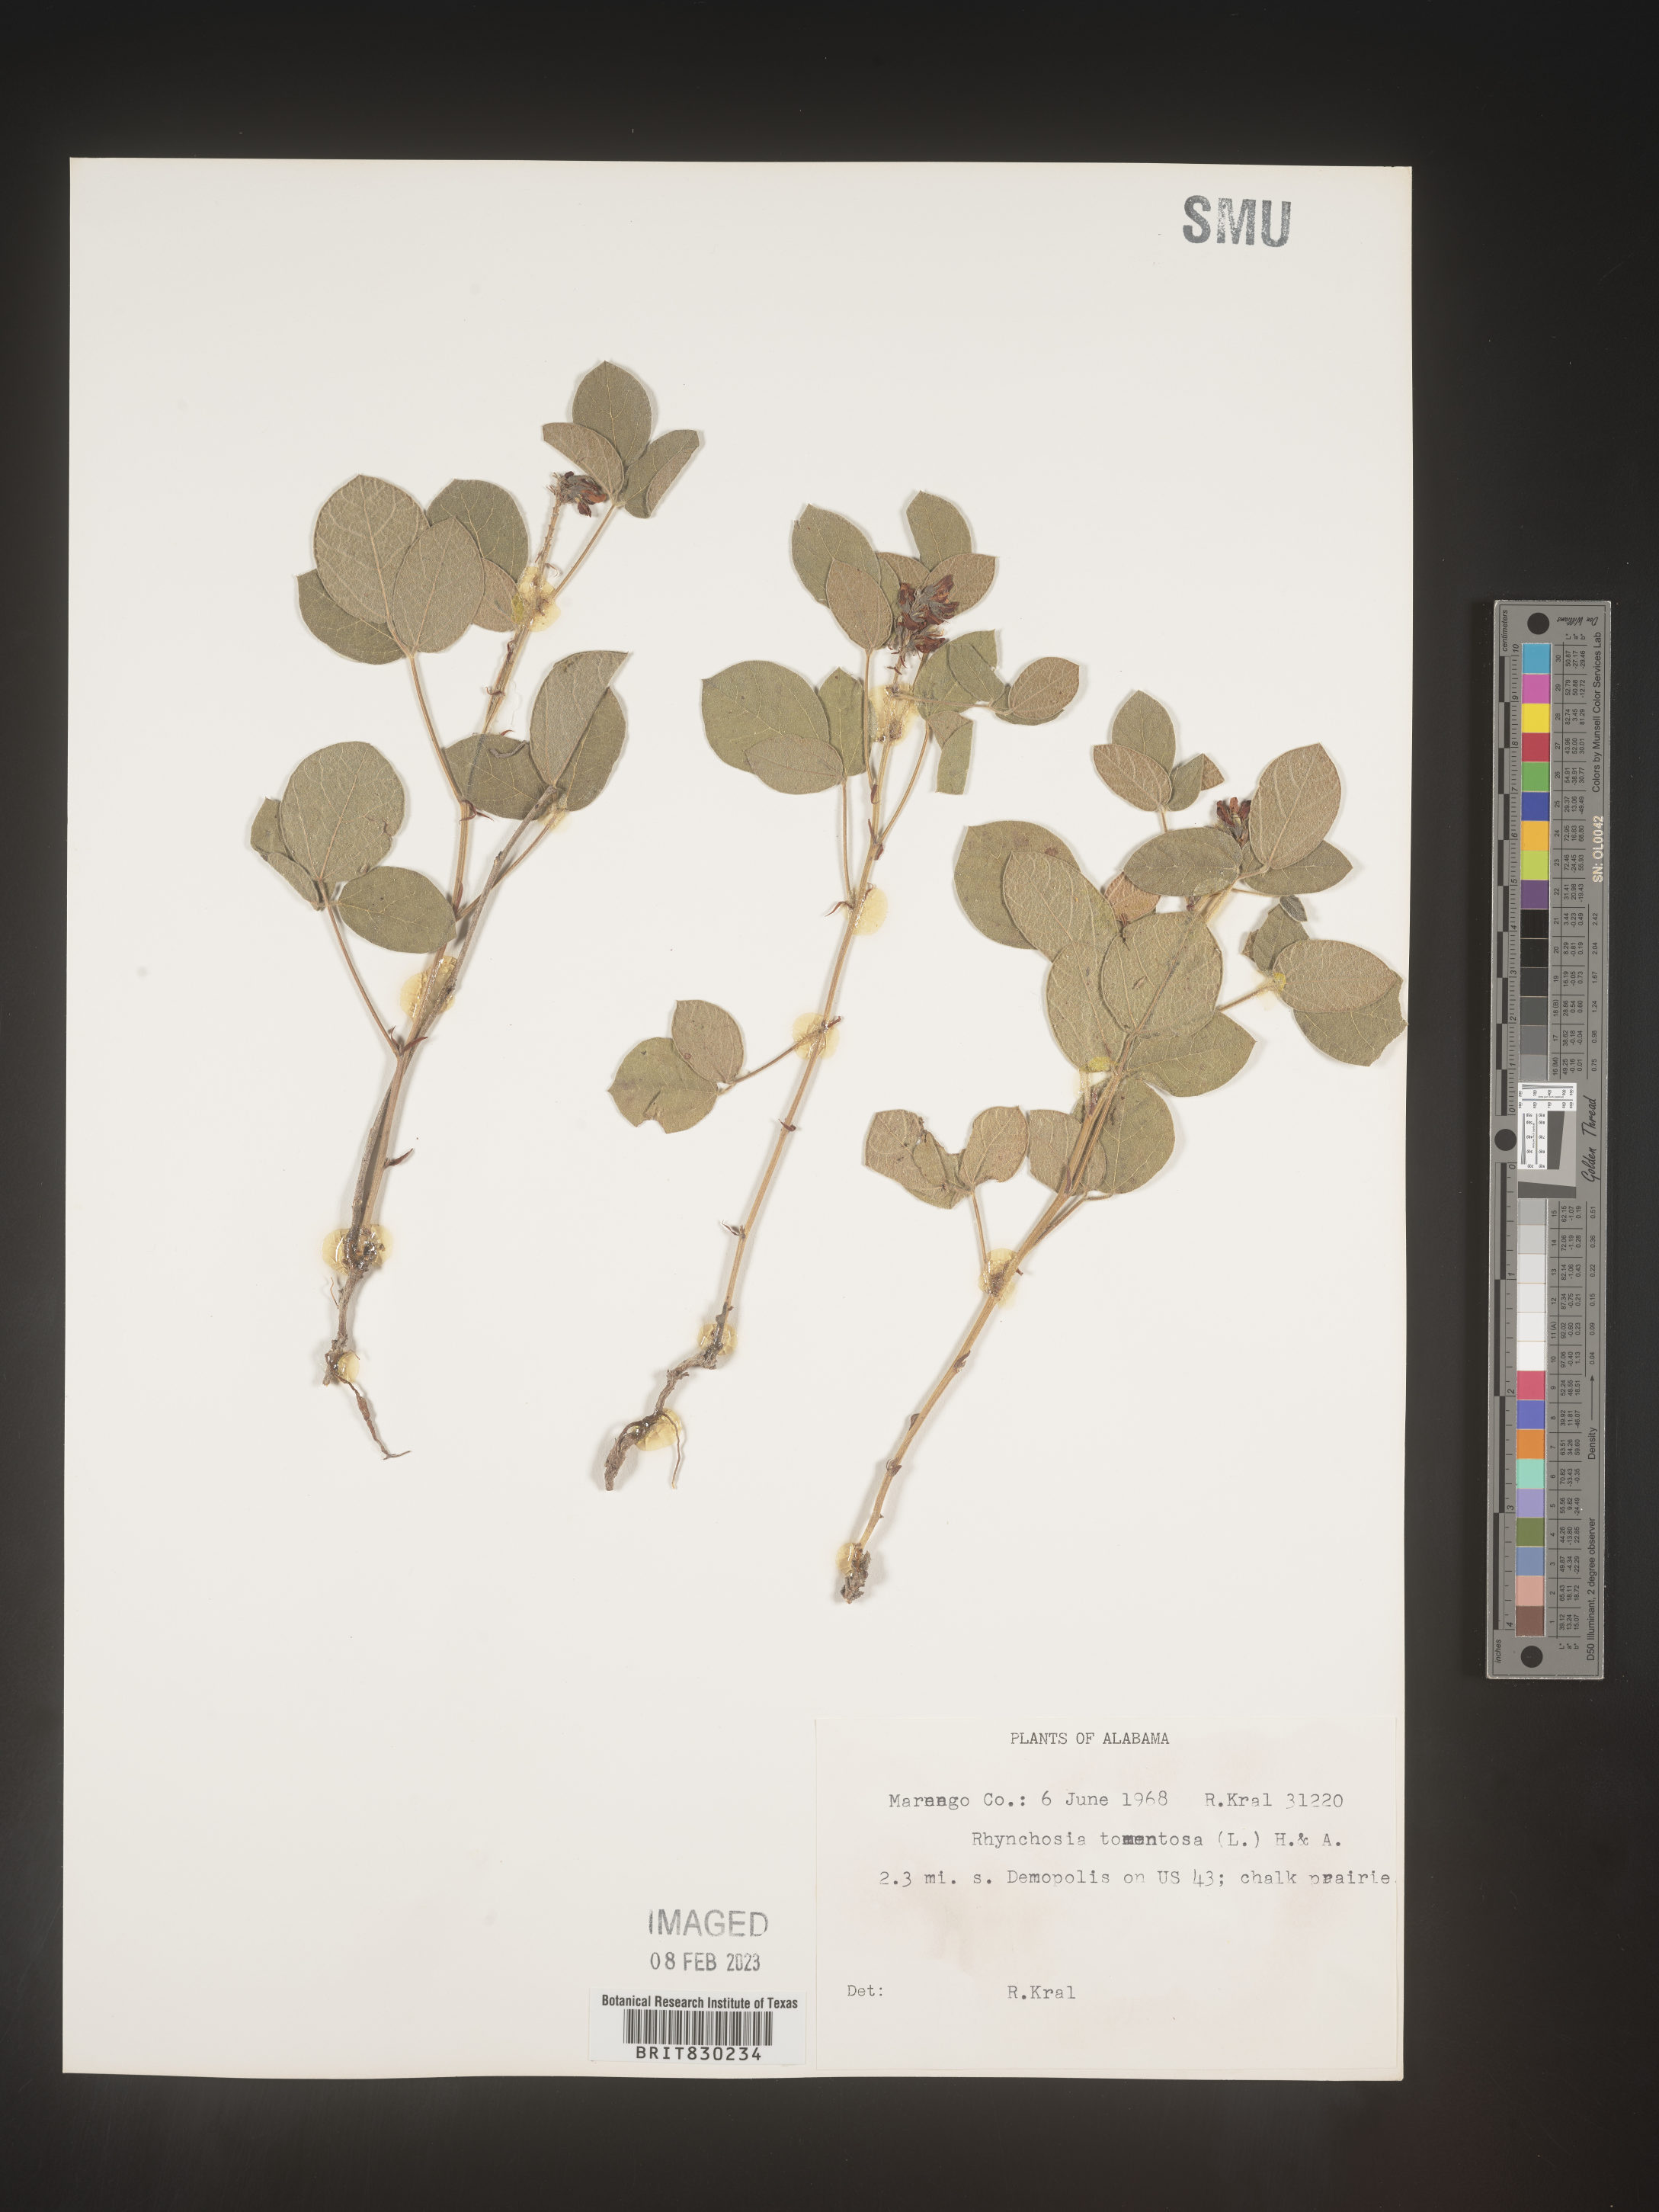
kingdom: Plantae
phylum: Tracheophyta
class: Magnoliopsida
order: Fabales
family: Fabaceae
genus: Rhynchosia
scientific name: Rhynchosia rothii
